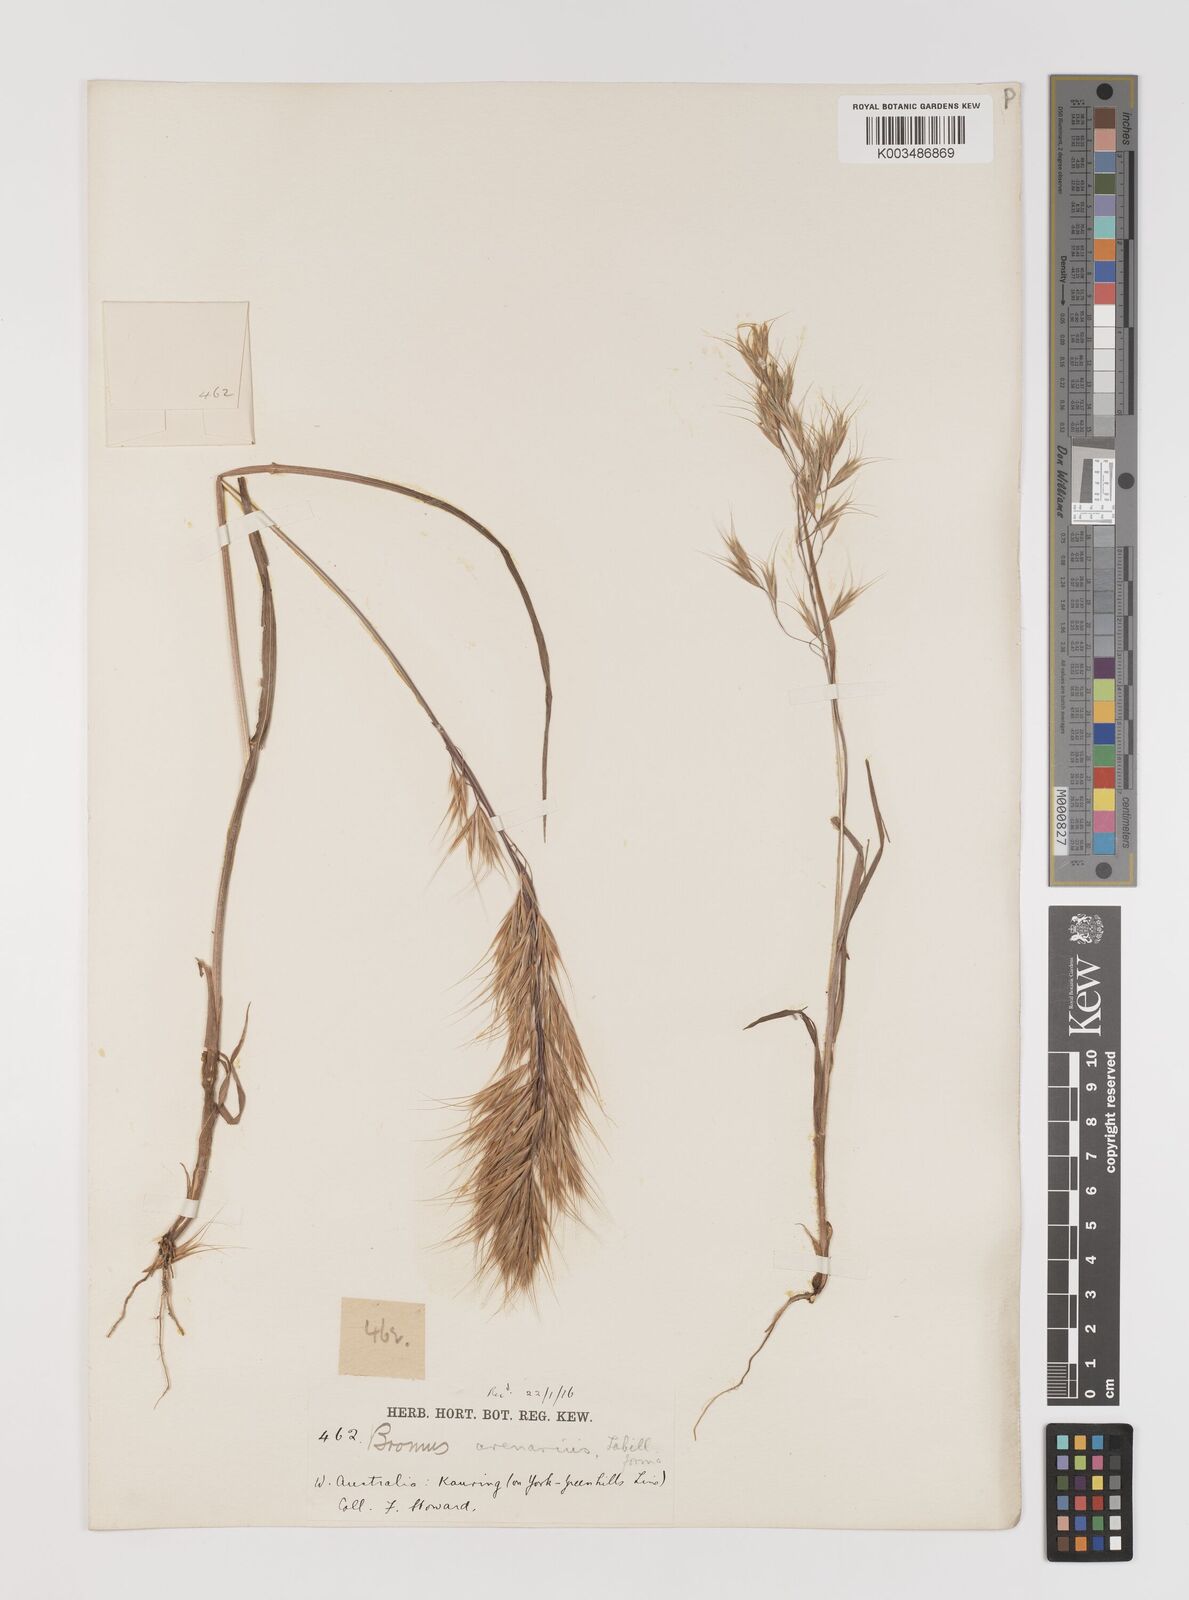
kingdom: Plantae
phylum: Tracheophyta
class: Liliopsida
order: Poales
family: Poaceae
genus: Bromus
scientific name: Bromus arenarius
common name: Australian brome
